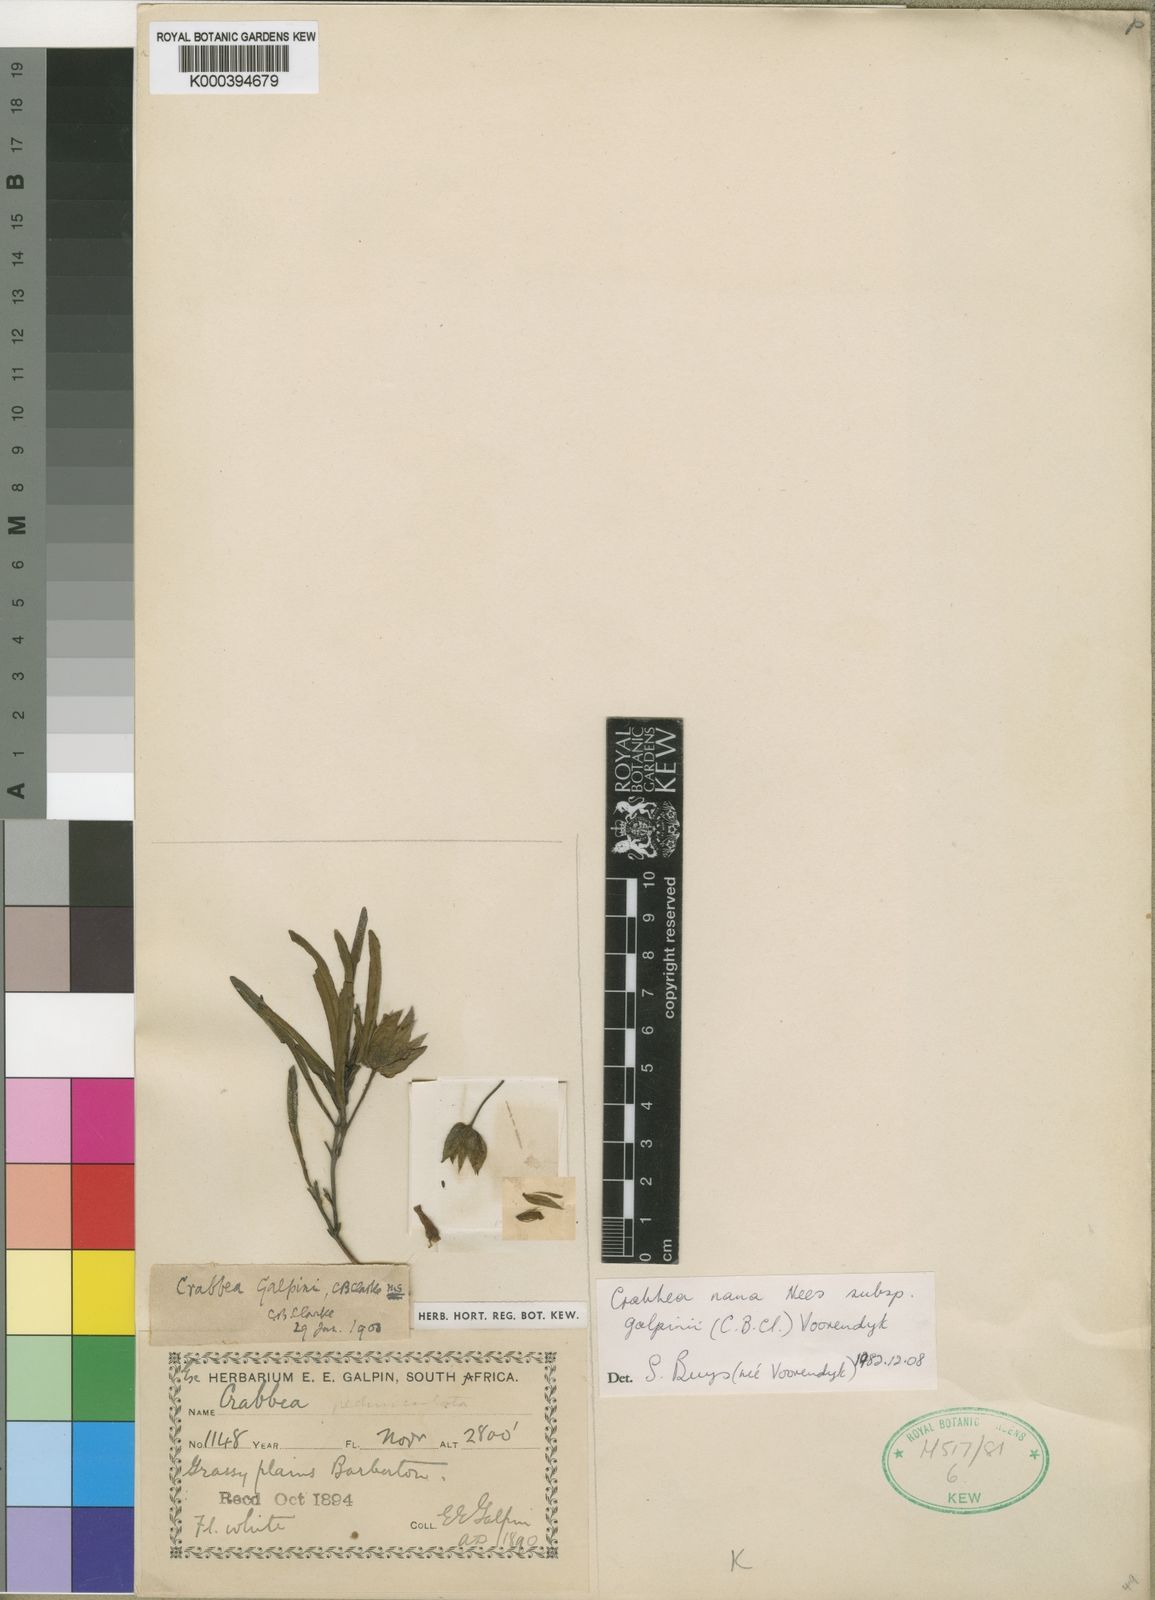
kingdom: Plantae
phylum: Tracheophyta
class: Magnoliopsida
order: Lamiales
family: Acanthaceae
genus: Crabbea
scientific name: Crabbea nana
